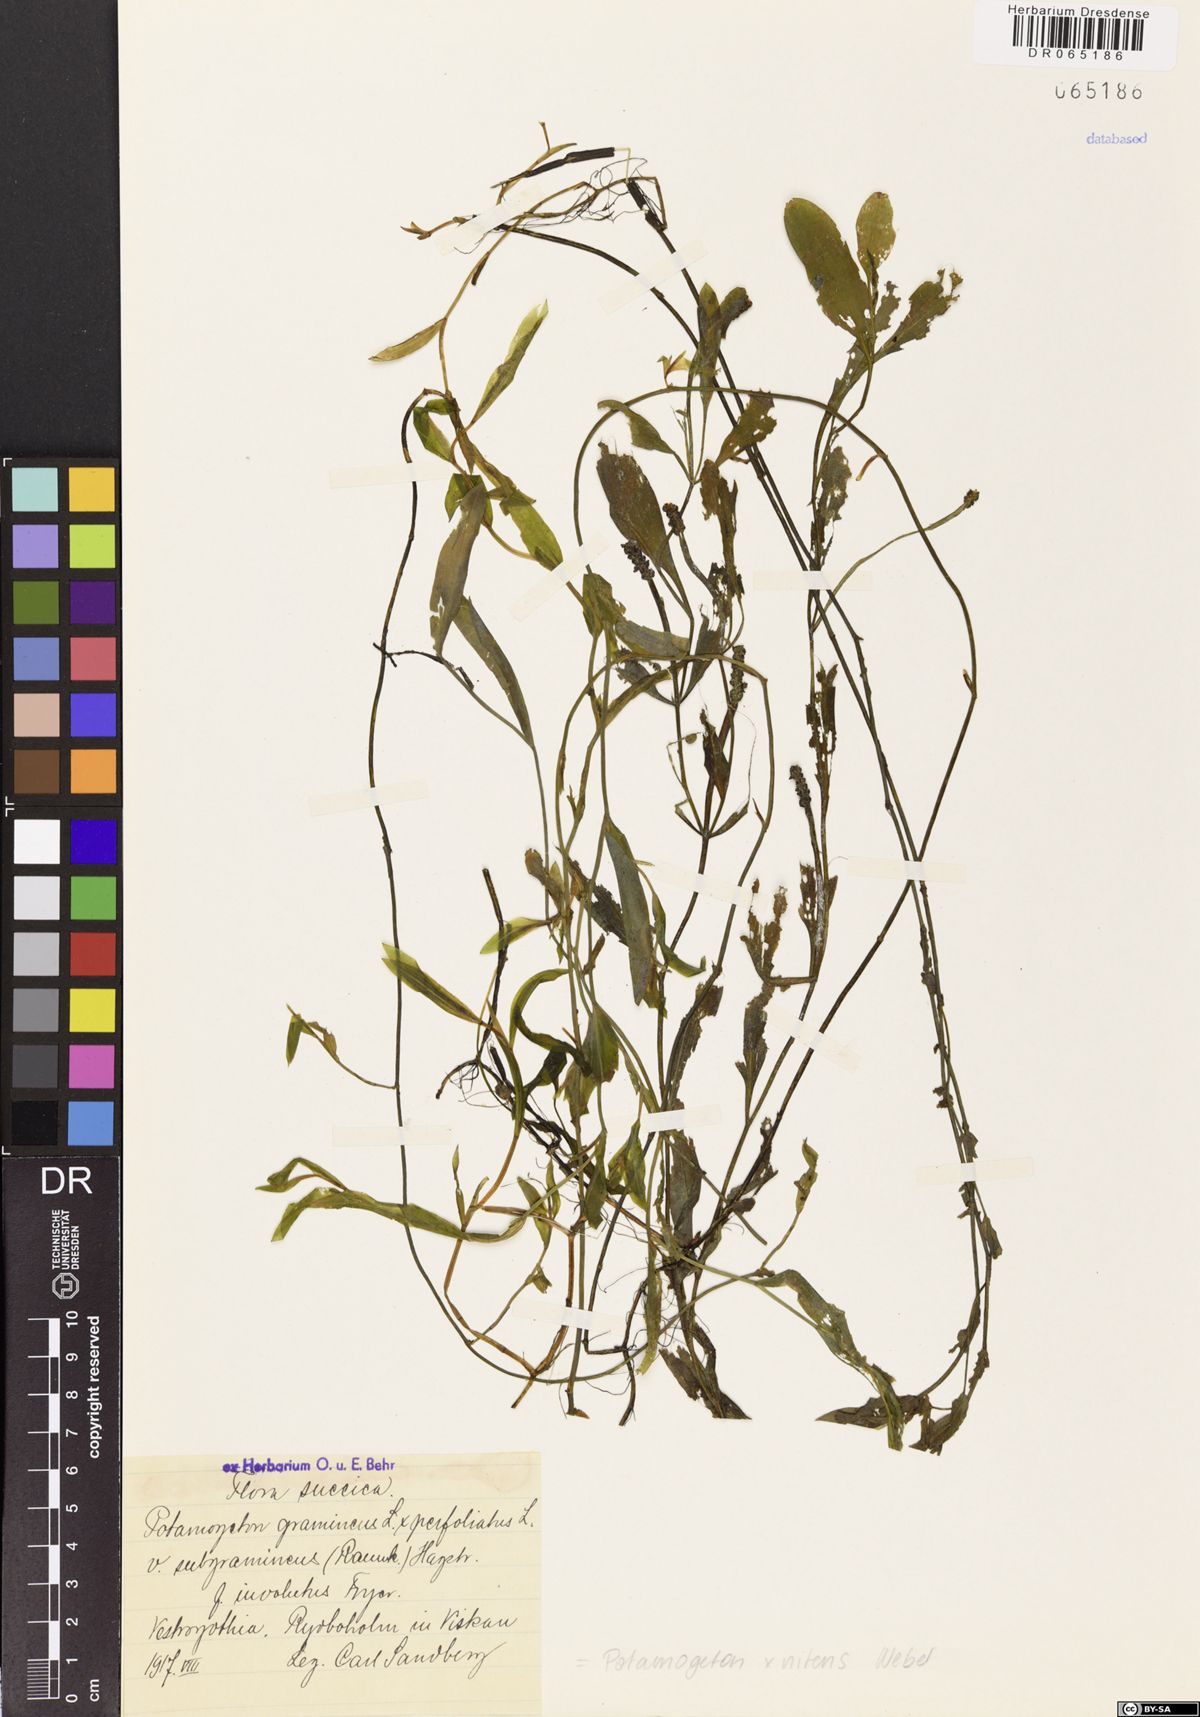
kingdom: Plantae
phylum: Tracheophyta
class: Liliopsida
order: Alismatales
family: Potamogetonaceae
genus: Potamogeton
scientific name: Potamogeton nitens
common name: Pondweed
